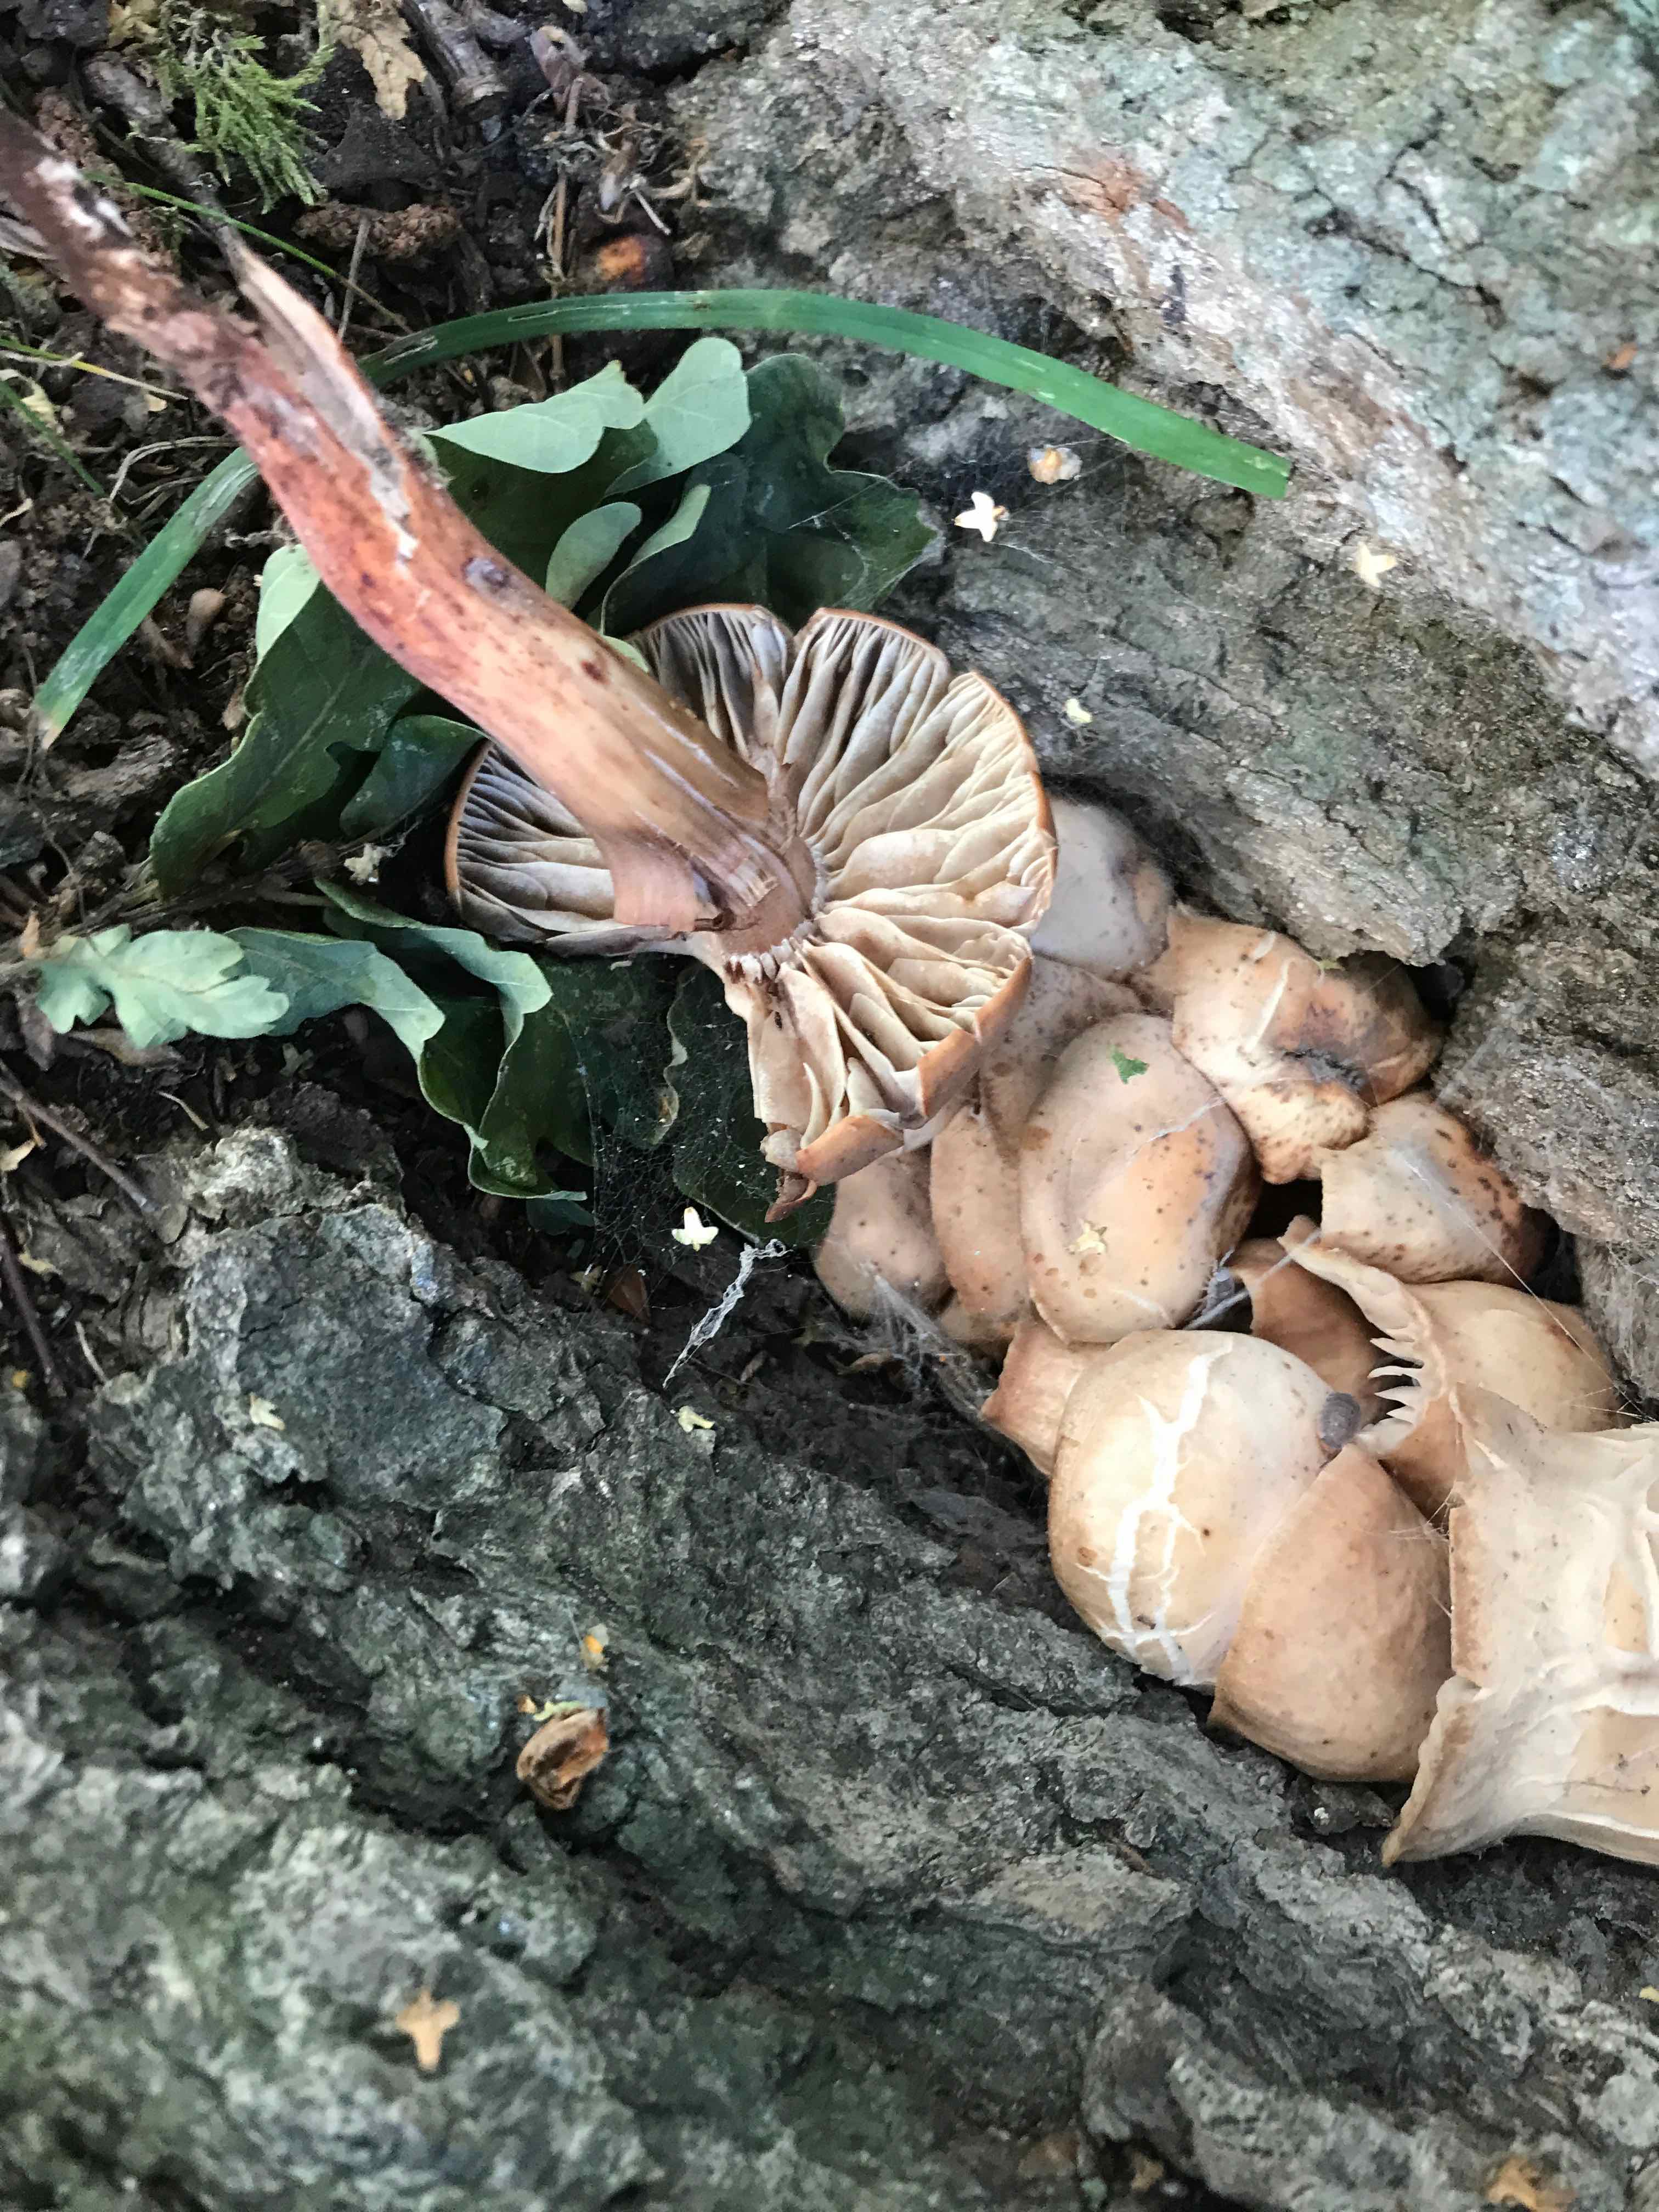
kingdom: Fungi
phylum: Basidiomycota
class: Agaricomycetes
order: Agaricales
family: Omphalotaceae
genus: Gymnopus
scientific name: Gymnopus fusipes
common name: tenstokket fladhat
